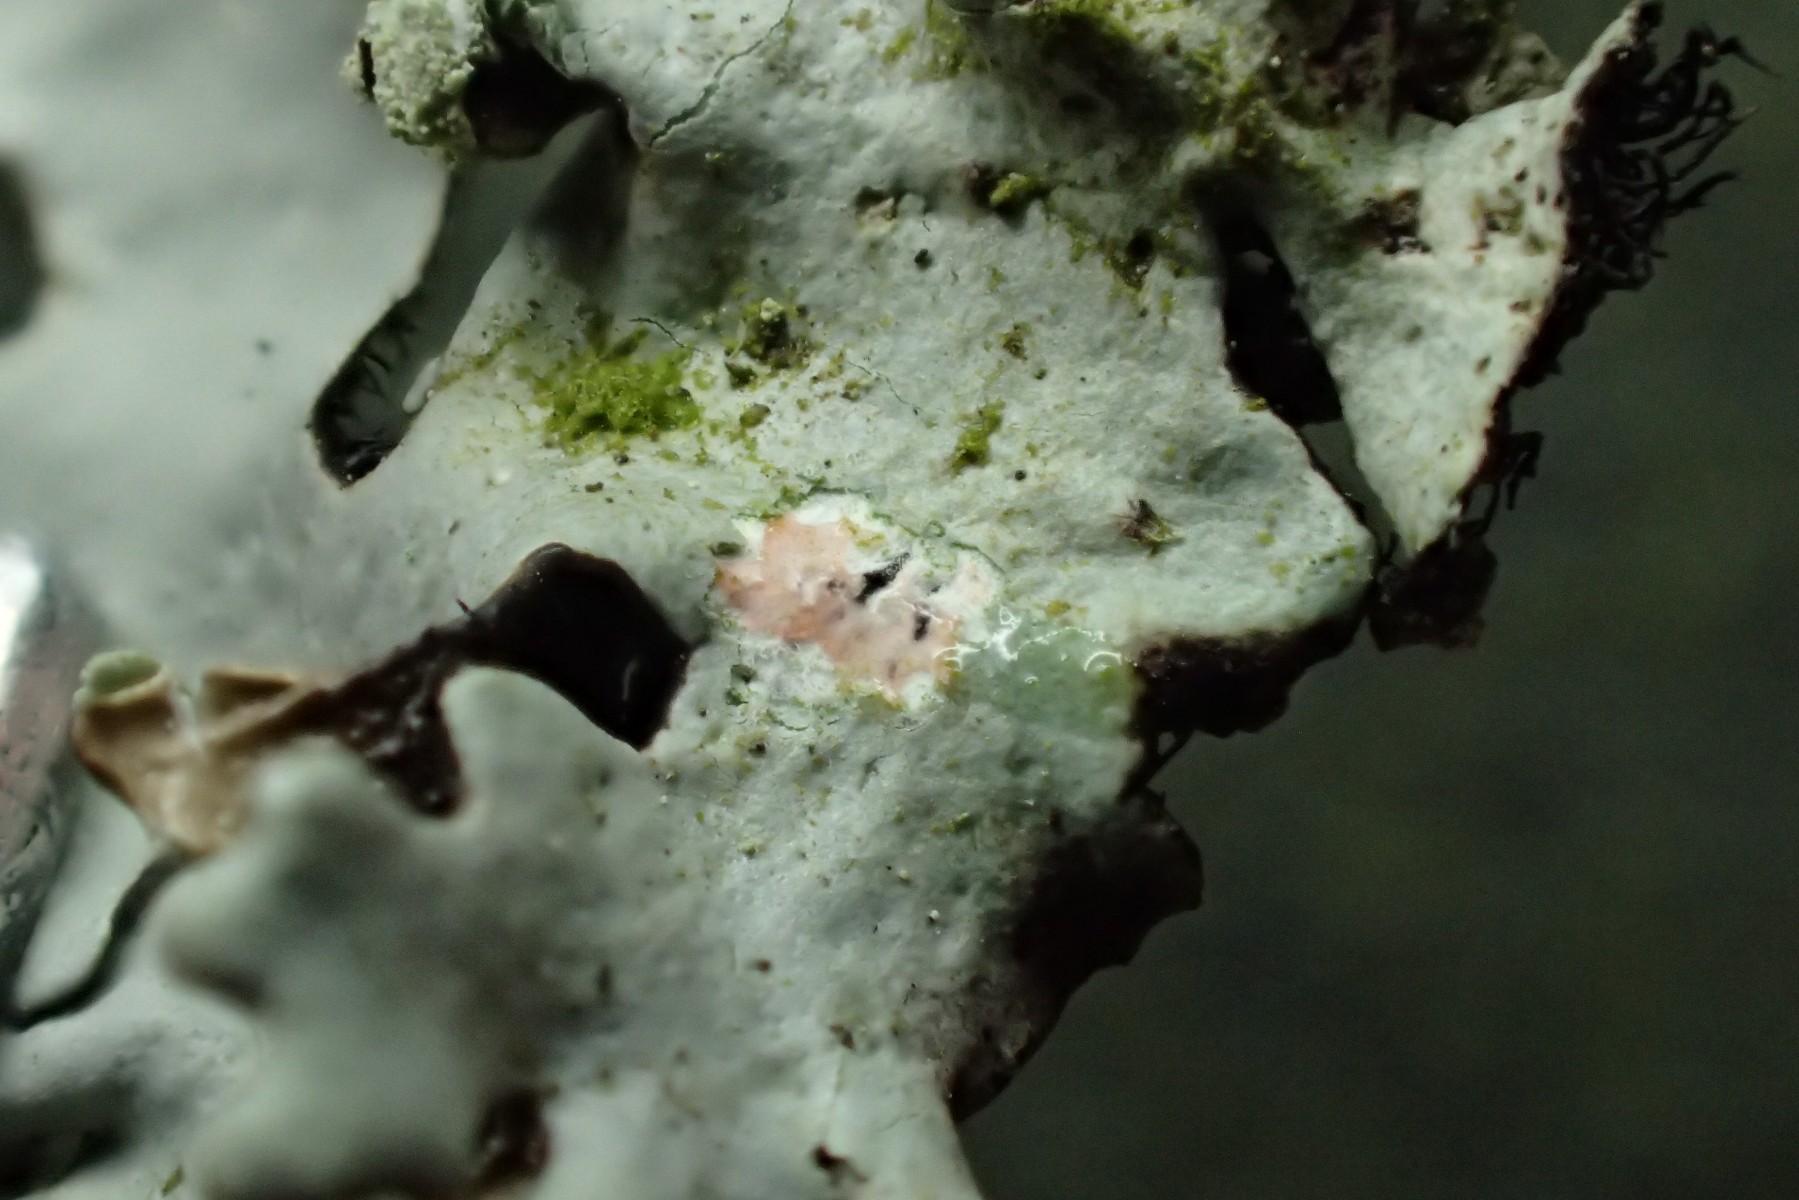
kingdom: Fungi
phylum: Ascomycota
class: Lecanoromycetes
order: Lecanorales
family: Parmeliaceae
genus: Hypotrachyna
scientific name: Hypotrachyna revoluta
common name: bleggrå skållav
